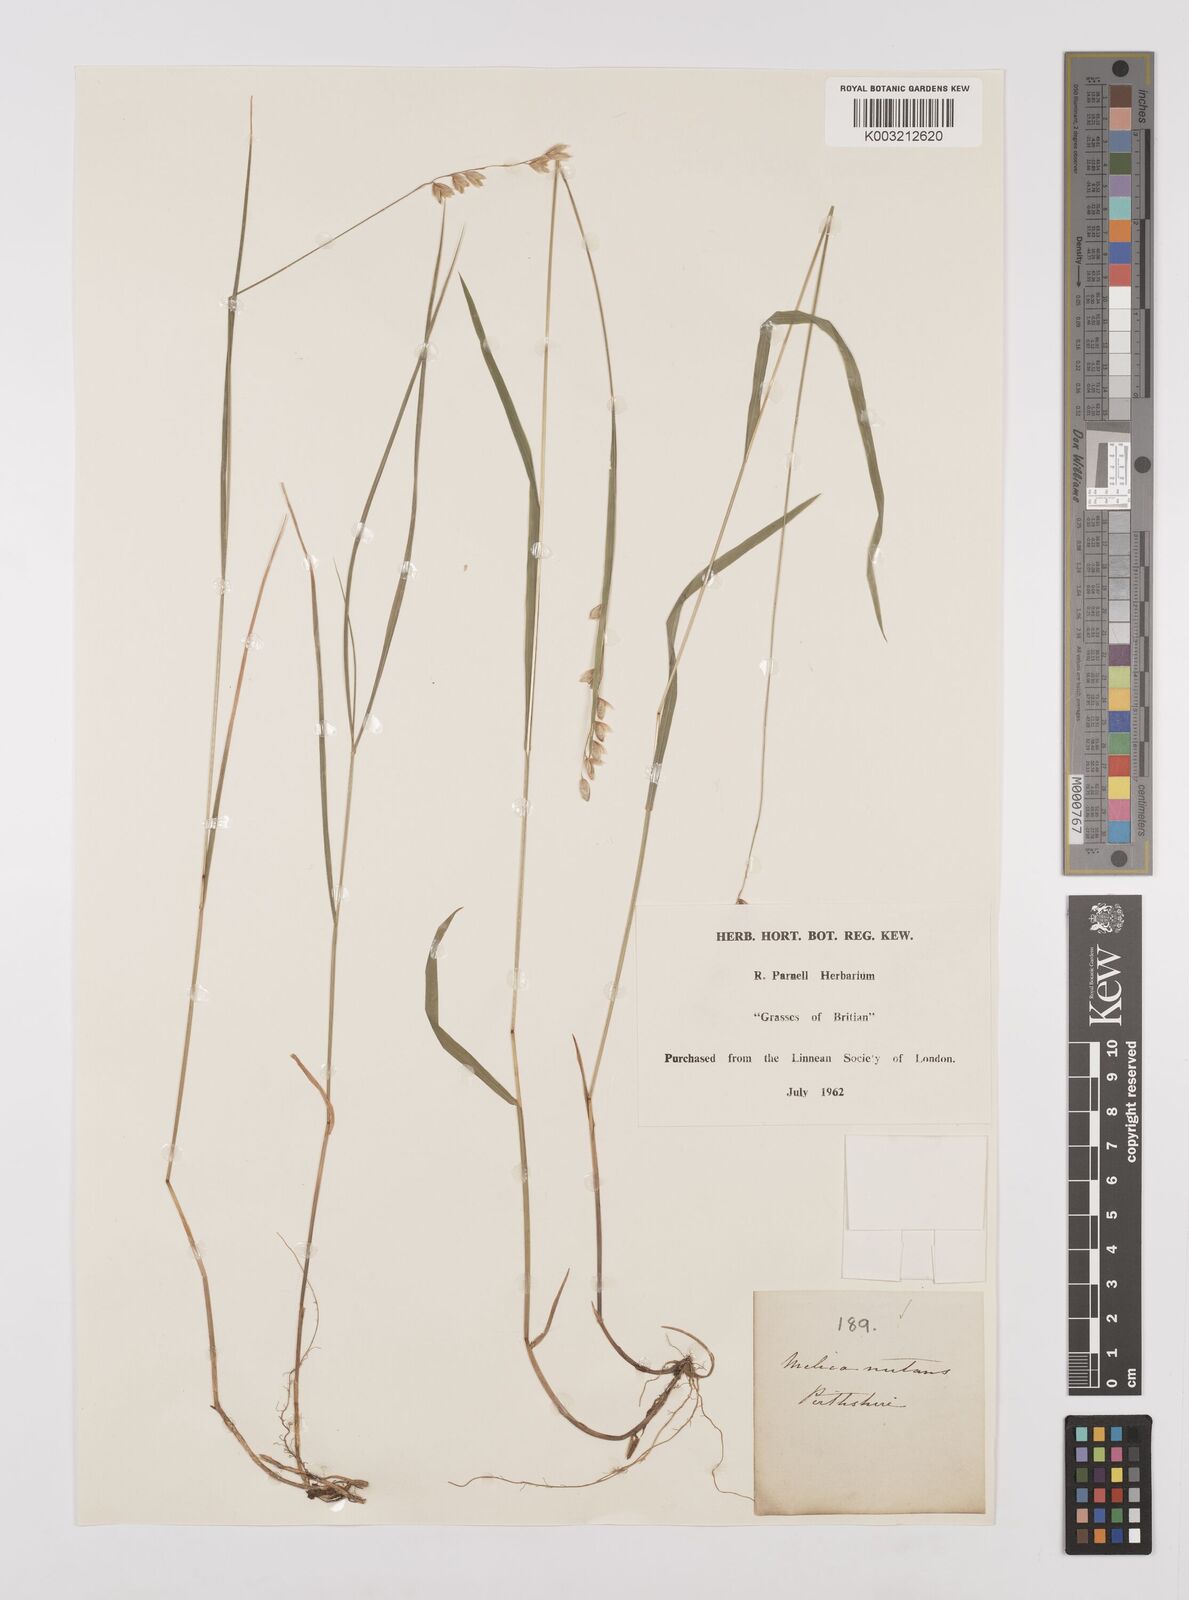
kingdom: Plantae
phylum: Tracheophyta
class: Liliopsida
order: Poales
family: Poaceae
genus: Melica
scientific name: Melica
